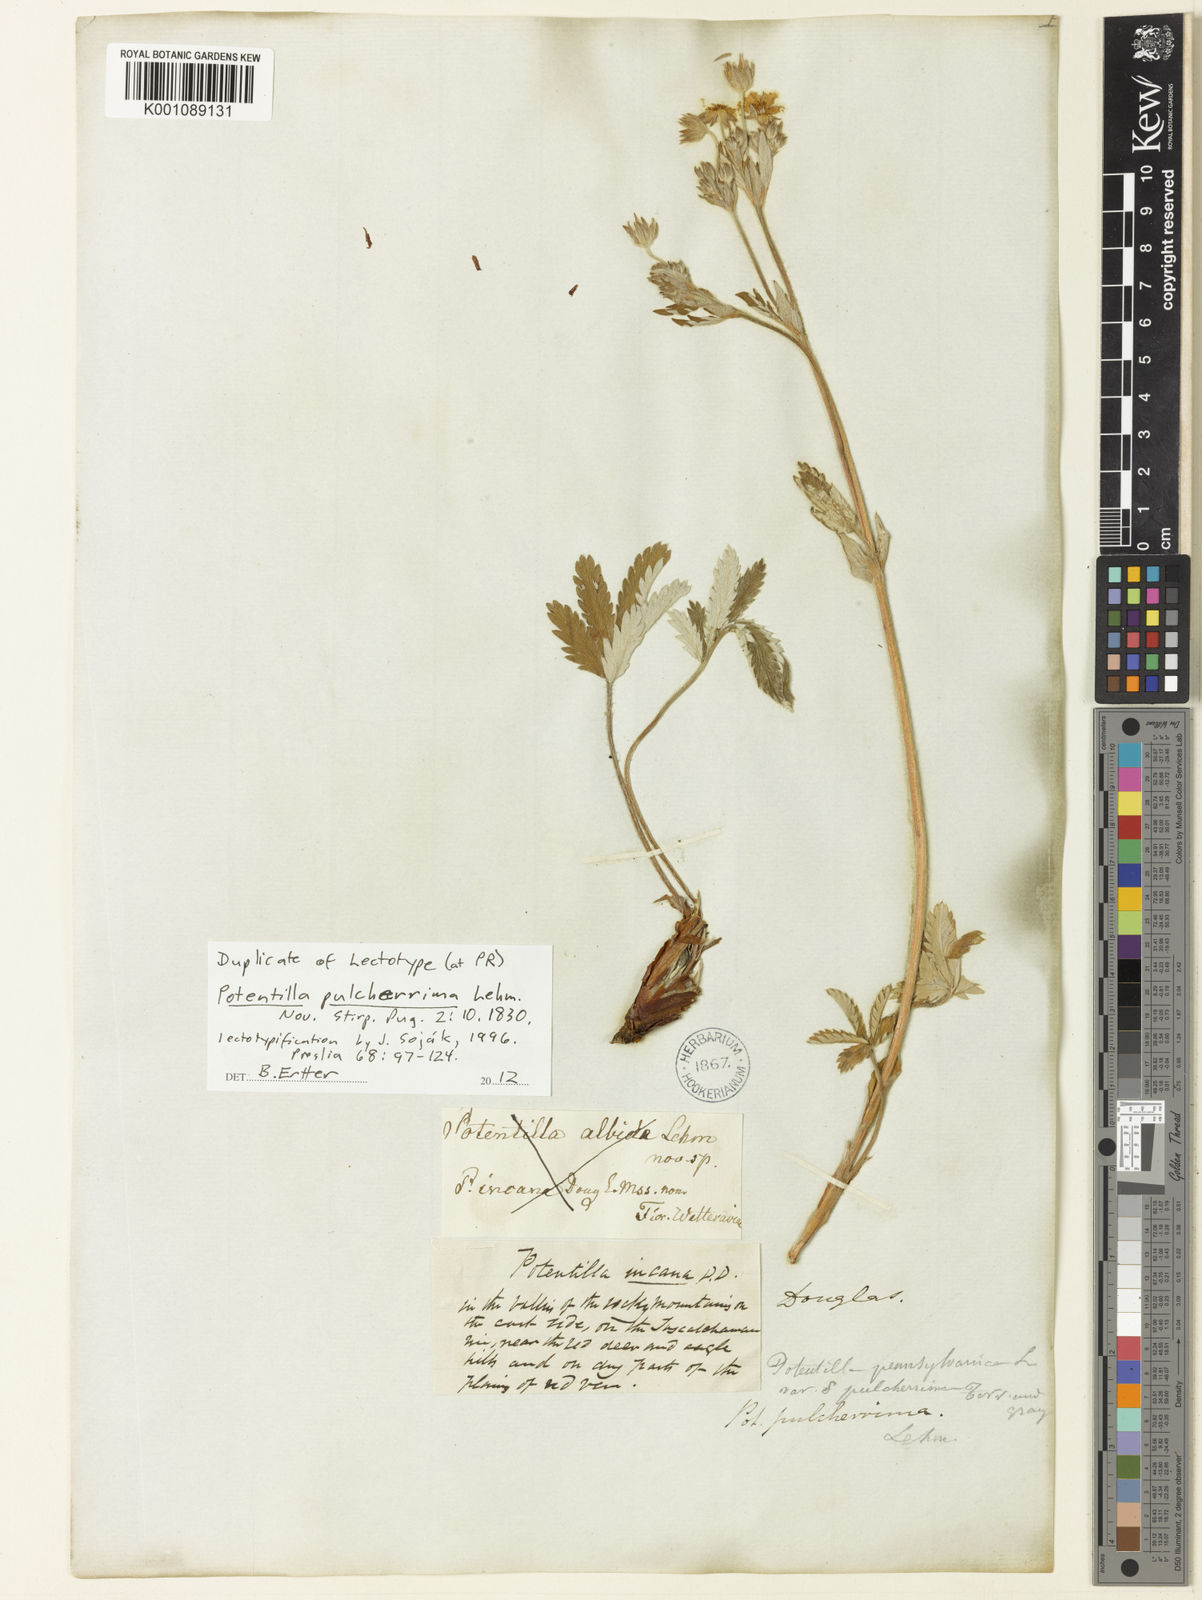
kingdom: Plantae
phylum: Tracheophyta
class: Magnoliopsida
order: Rosales
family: Rosaceae
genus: Potentilla
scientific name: Potentilla pulcherrima
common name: Beautiful cinquefoil
